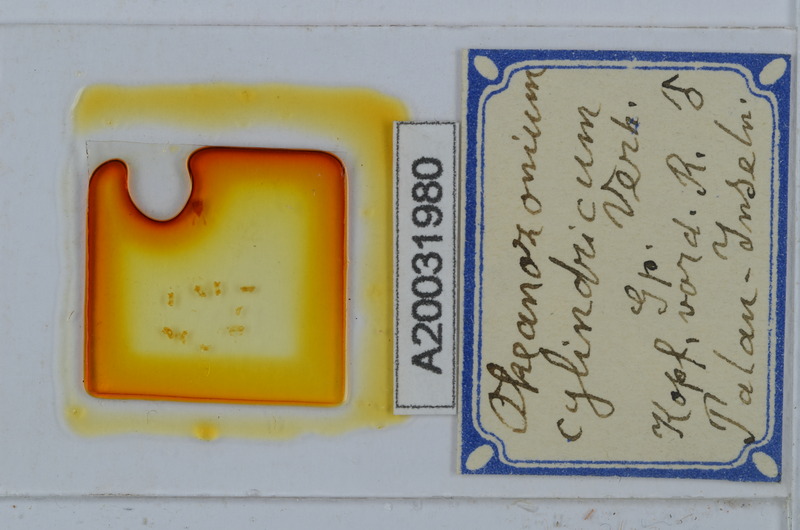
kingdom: Animalia
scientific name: Animalia
